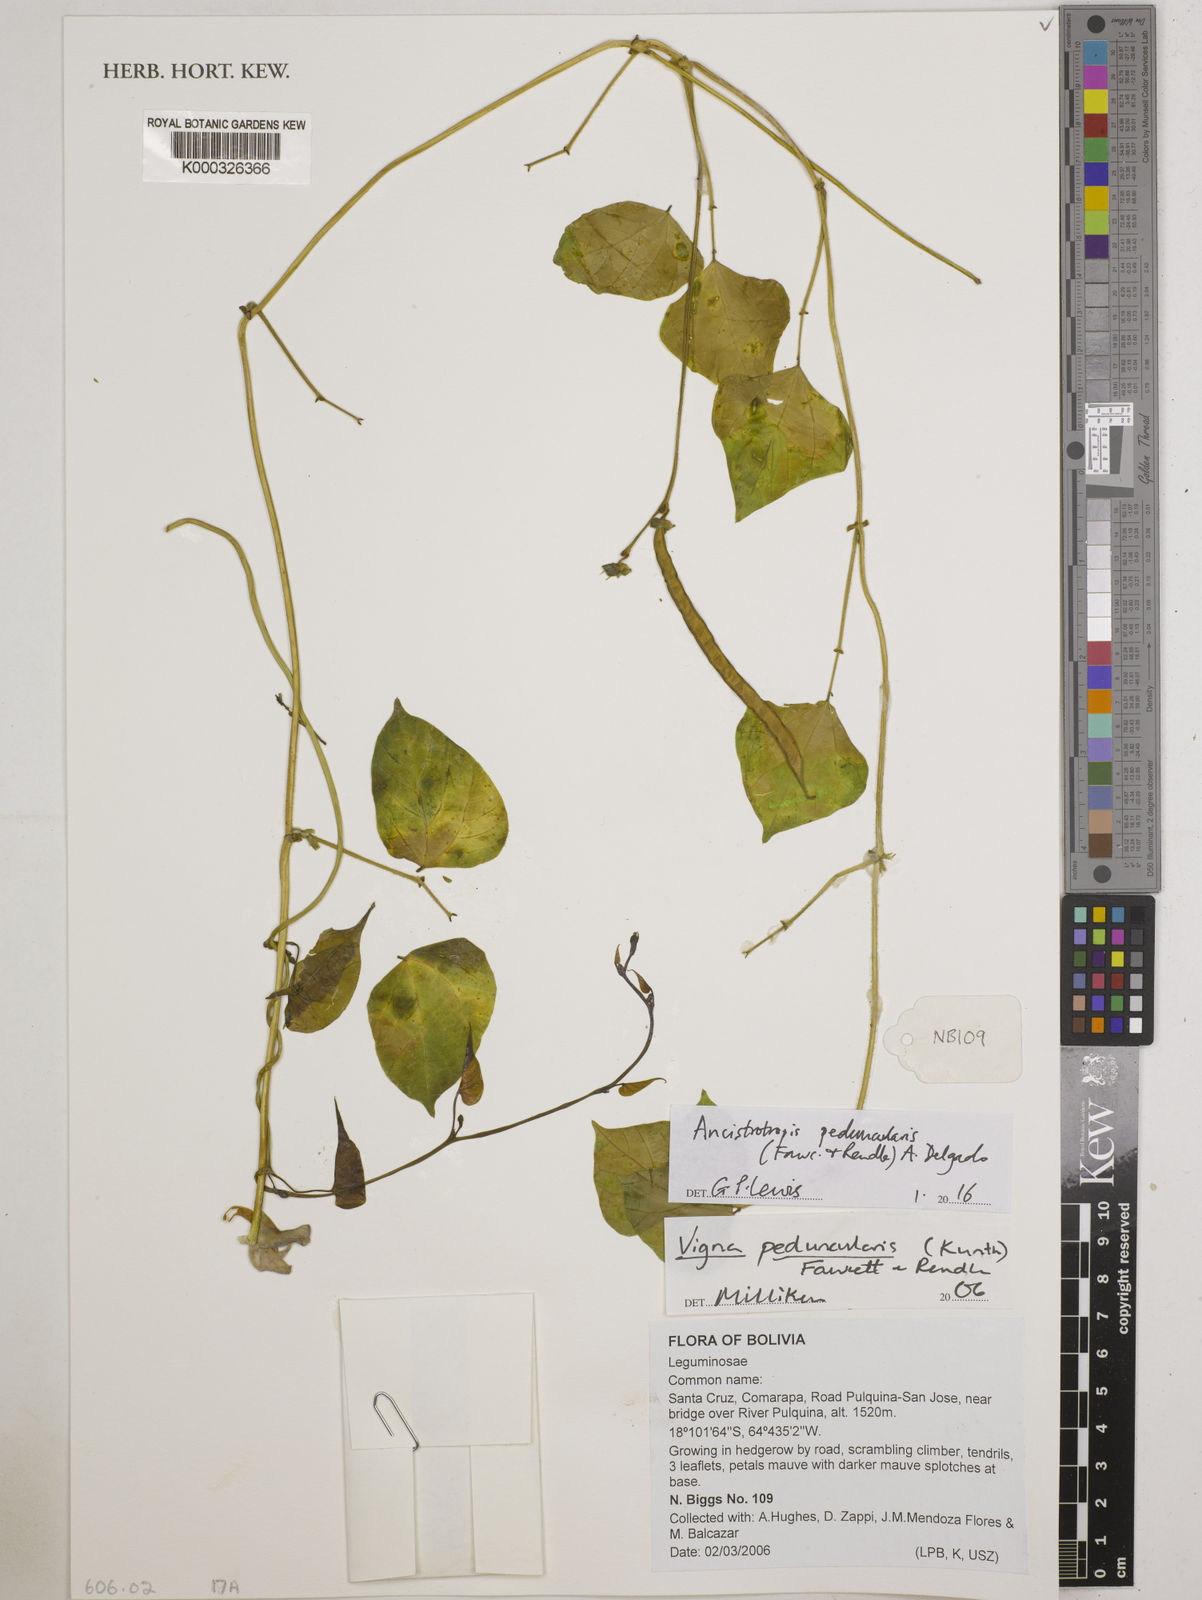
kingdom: Plantae
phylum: Tracheophyta
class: Magnoliopsida
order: Fabales
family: Fabaceae
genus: Ancistrotropis
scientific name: Ancistrotropis peduncularis
